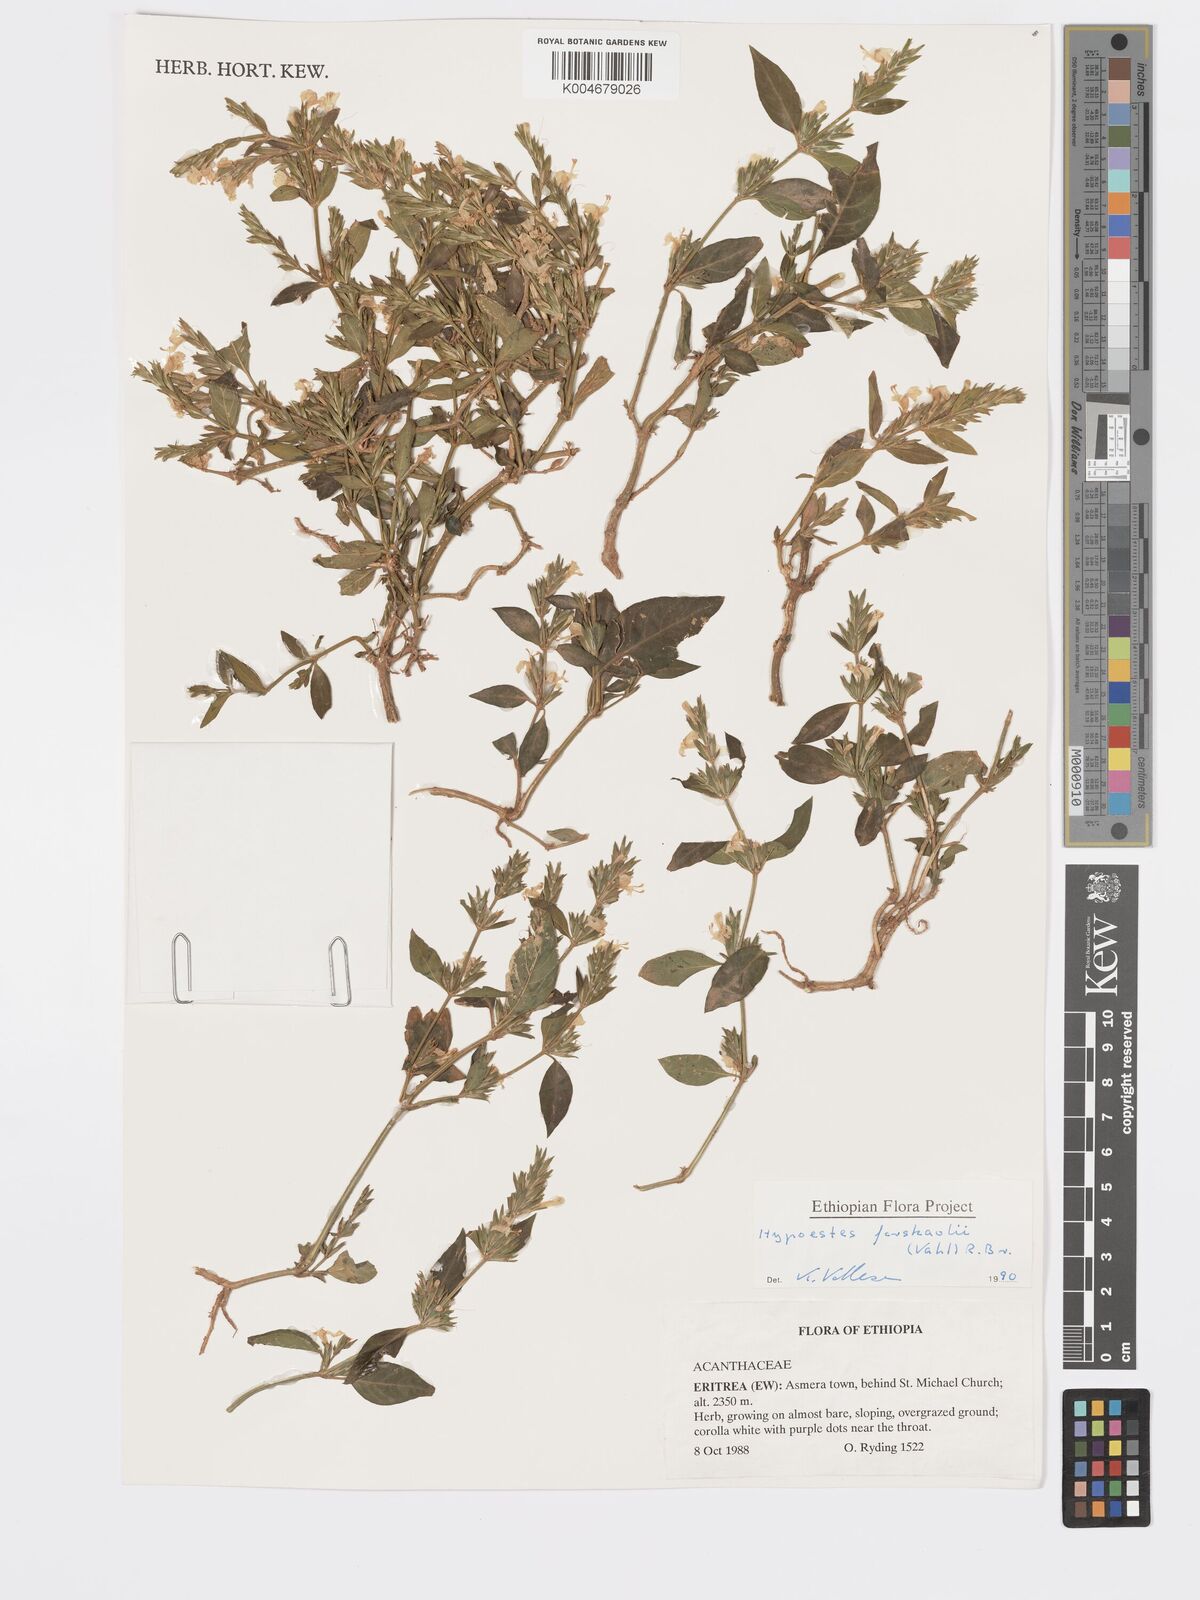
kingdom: Plantae
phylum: Tracheophyta
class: Magnoliopsida
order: Lamiales
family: Acanthaceae
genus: Hypoestes
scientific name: Hypoestes forskaolii
